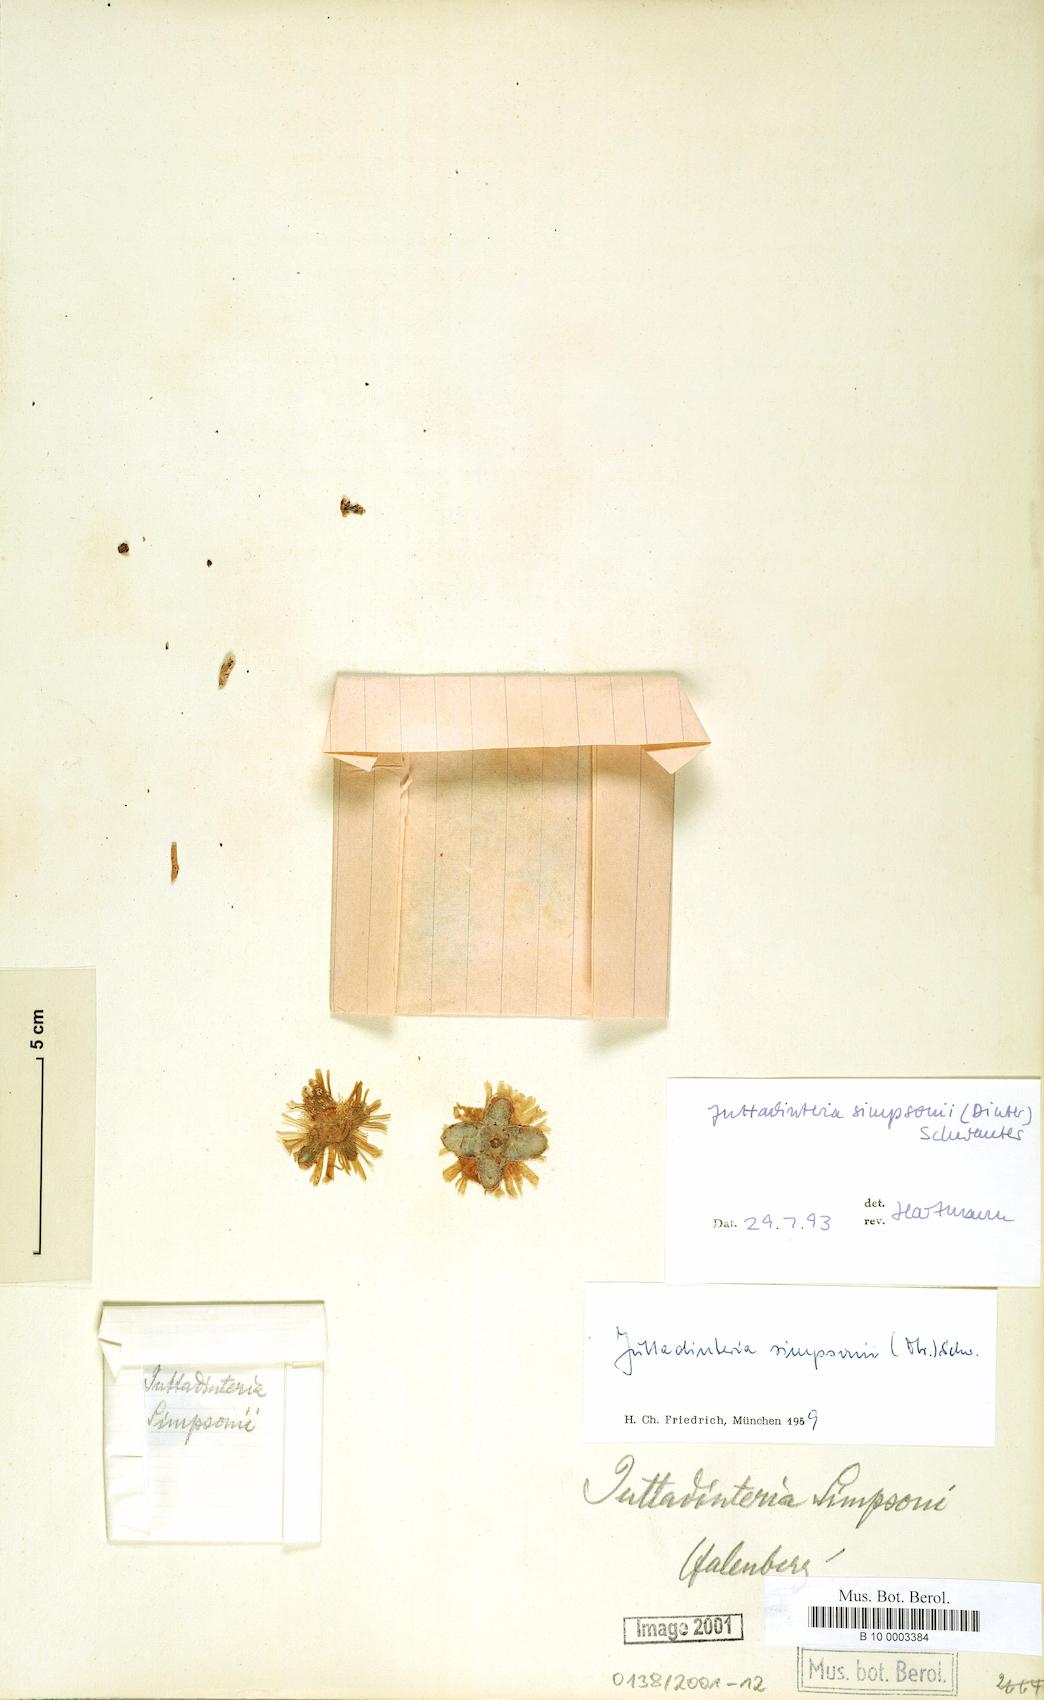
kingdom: Plantae
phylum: Tracheophyta
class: Magnoliopsida
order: Caryophyllales
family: Aizoaceae
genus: Juttadinteria
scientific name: Juttadinteria simpsonii
